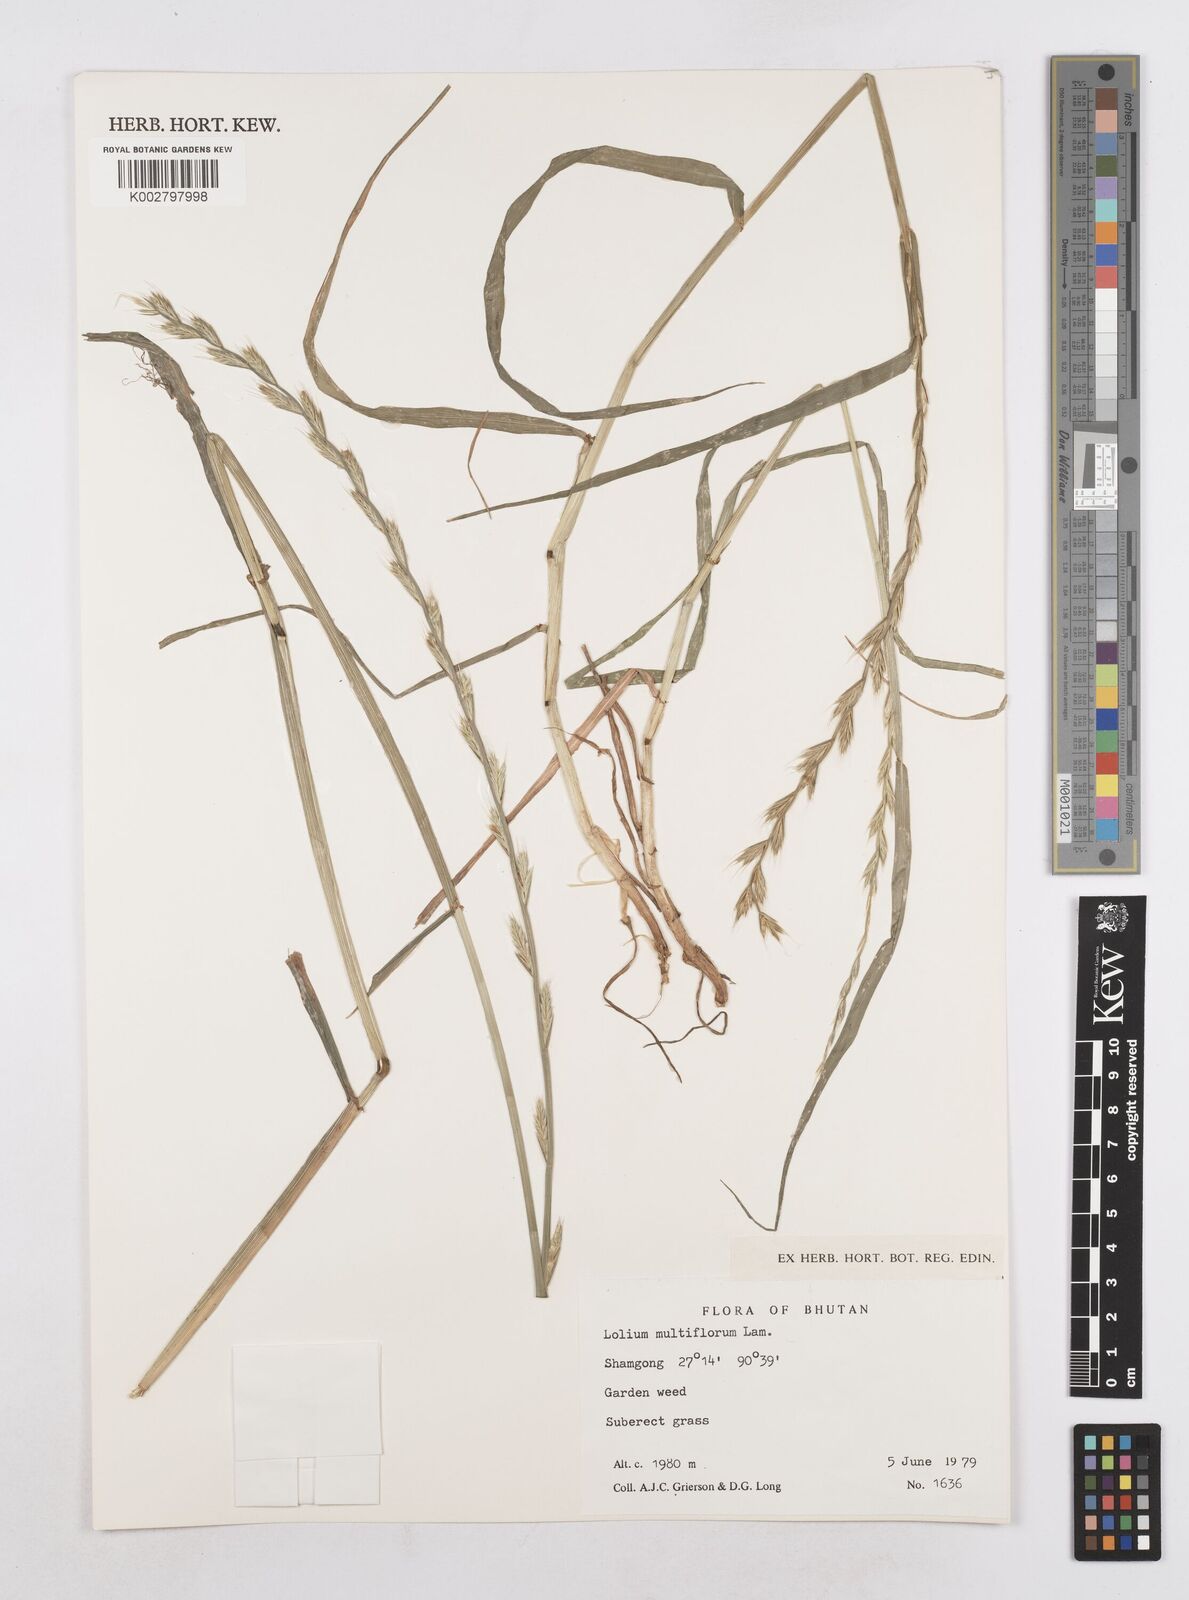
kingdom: Plantae
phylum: Tracheophyta
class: Liliopsida
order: Poales
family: Poaceae
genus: Lolium
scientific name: Lolium multiflorum
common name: Annual ryegrass
